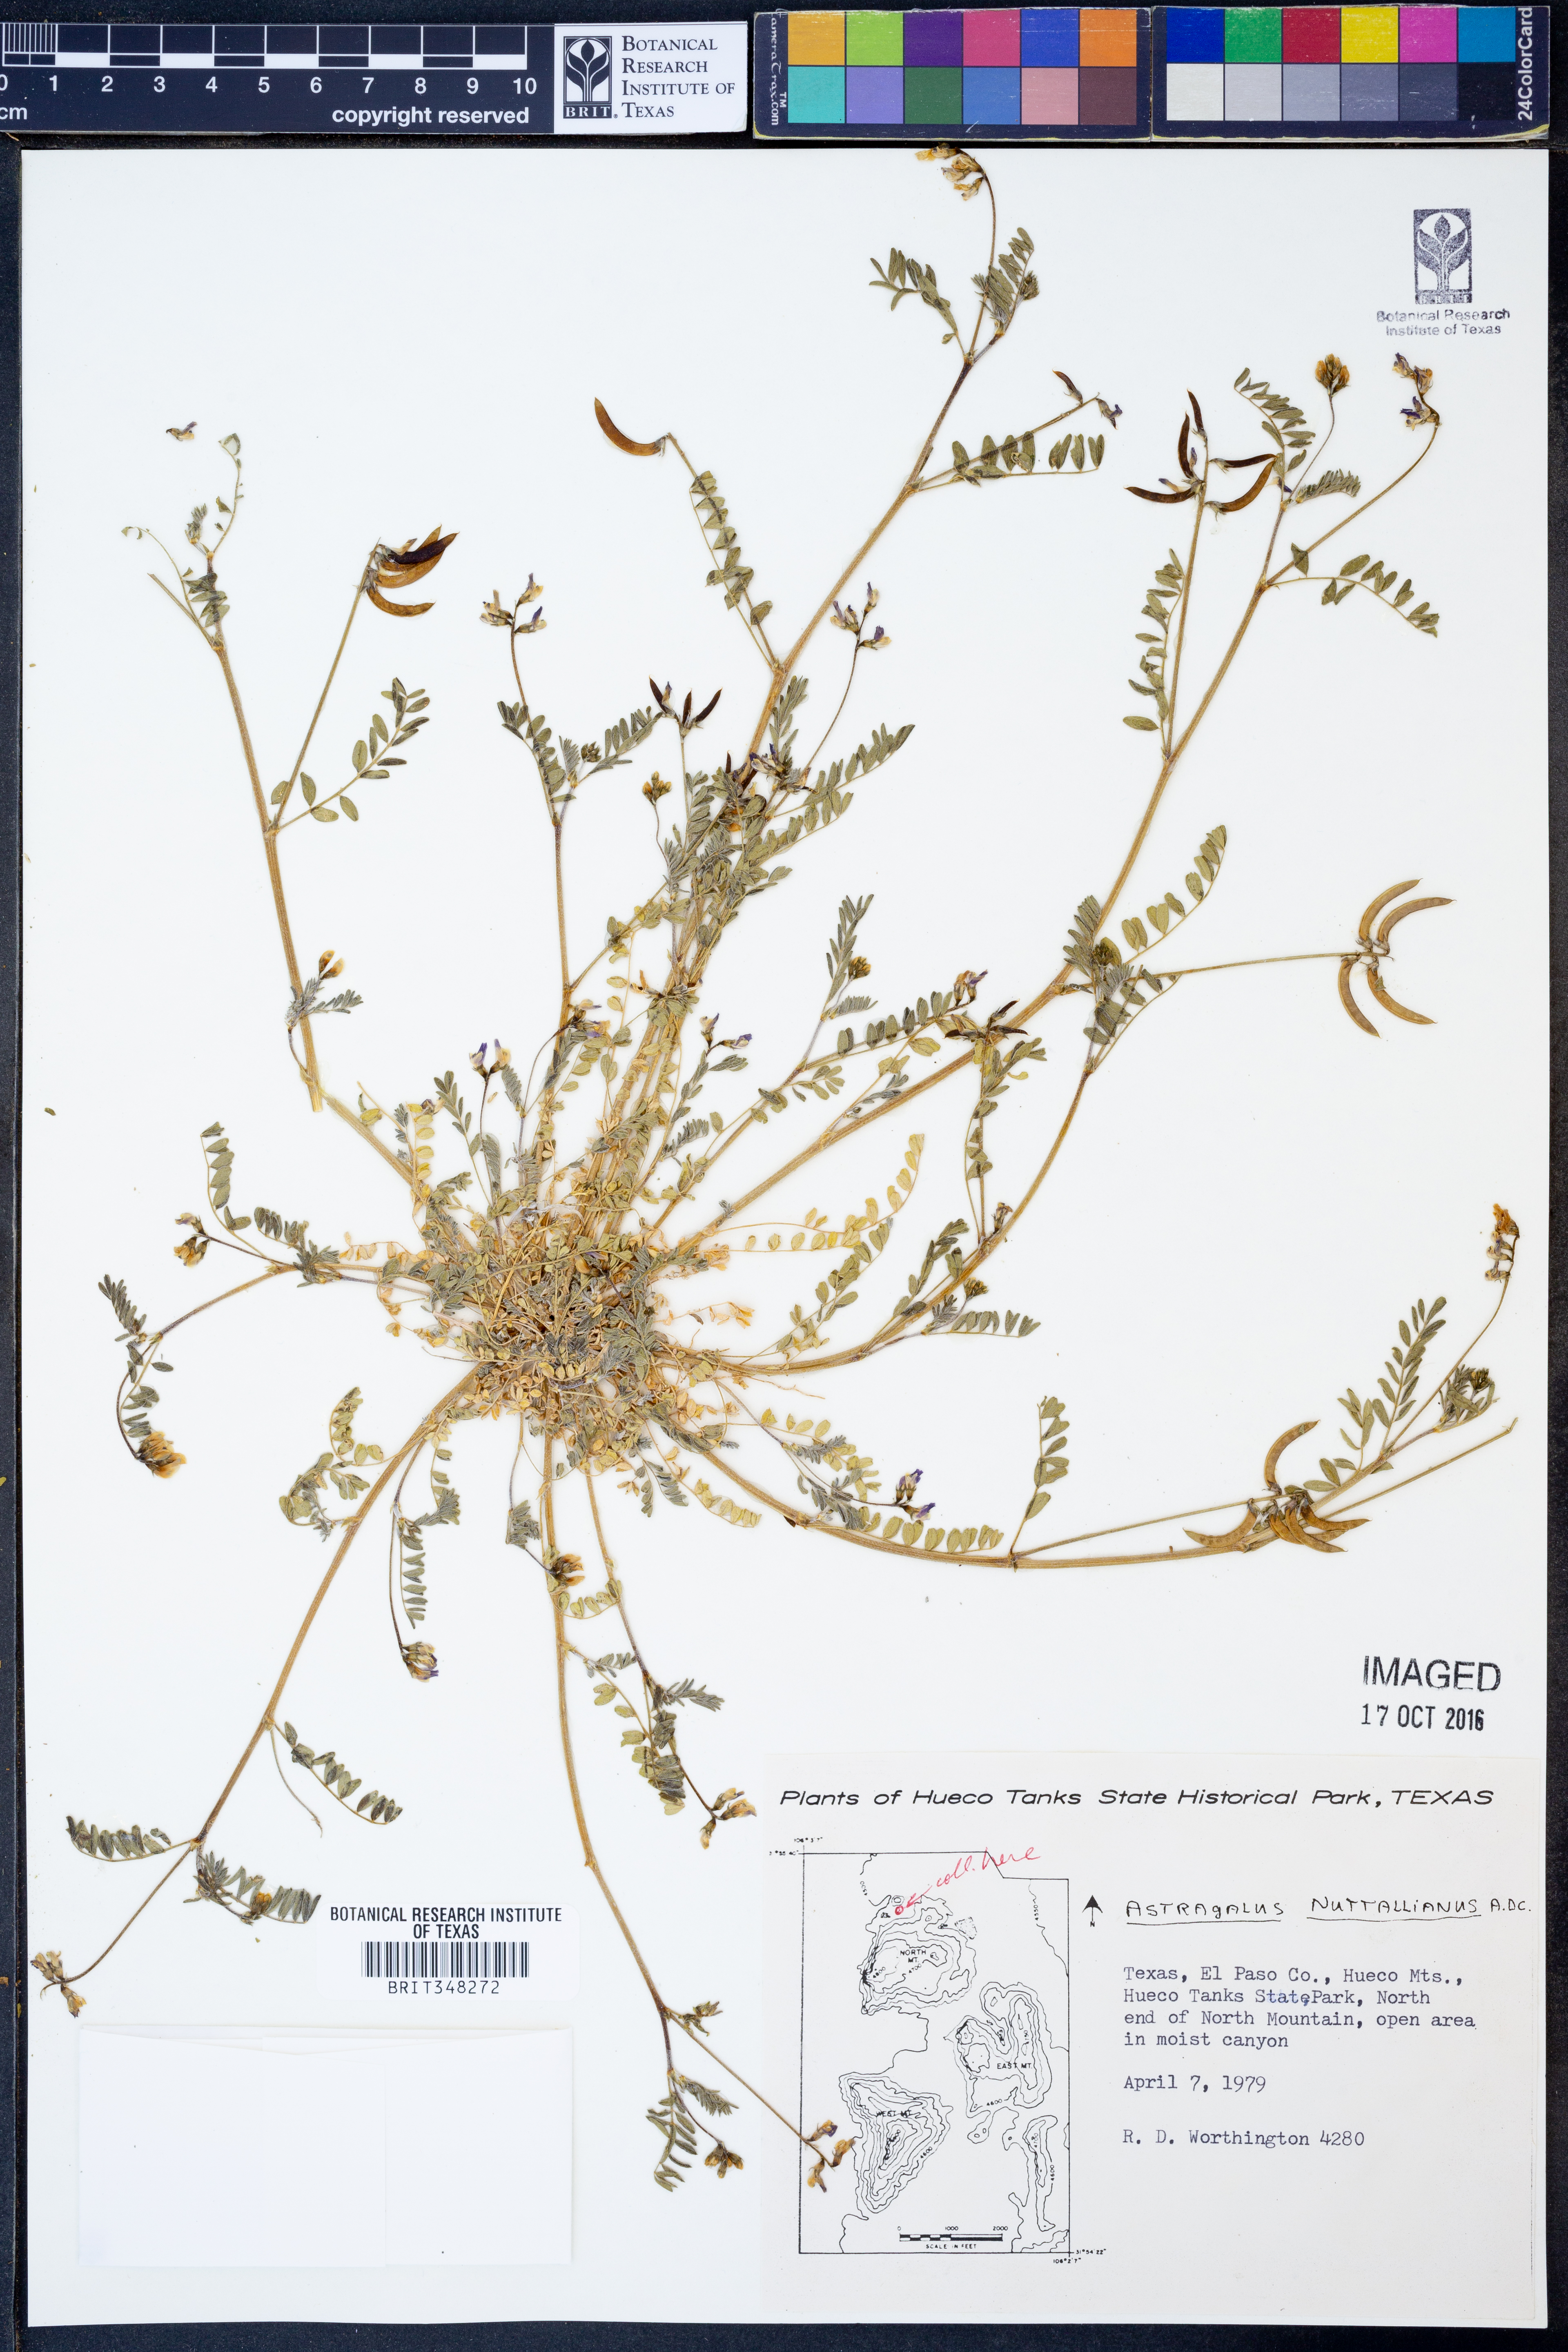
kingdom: Plantae
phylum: Tracheophyta
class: Magnoliopsida
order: Fabales
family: Fabaceae
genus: Astragalus
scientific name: Astragalus nuttallianus
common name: Smallflowered milkvetch
